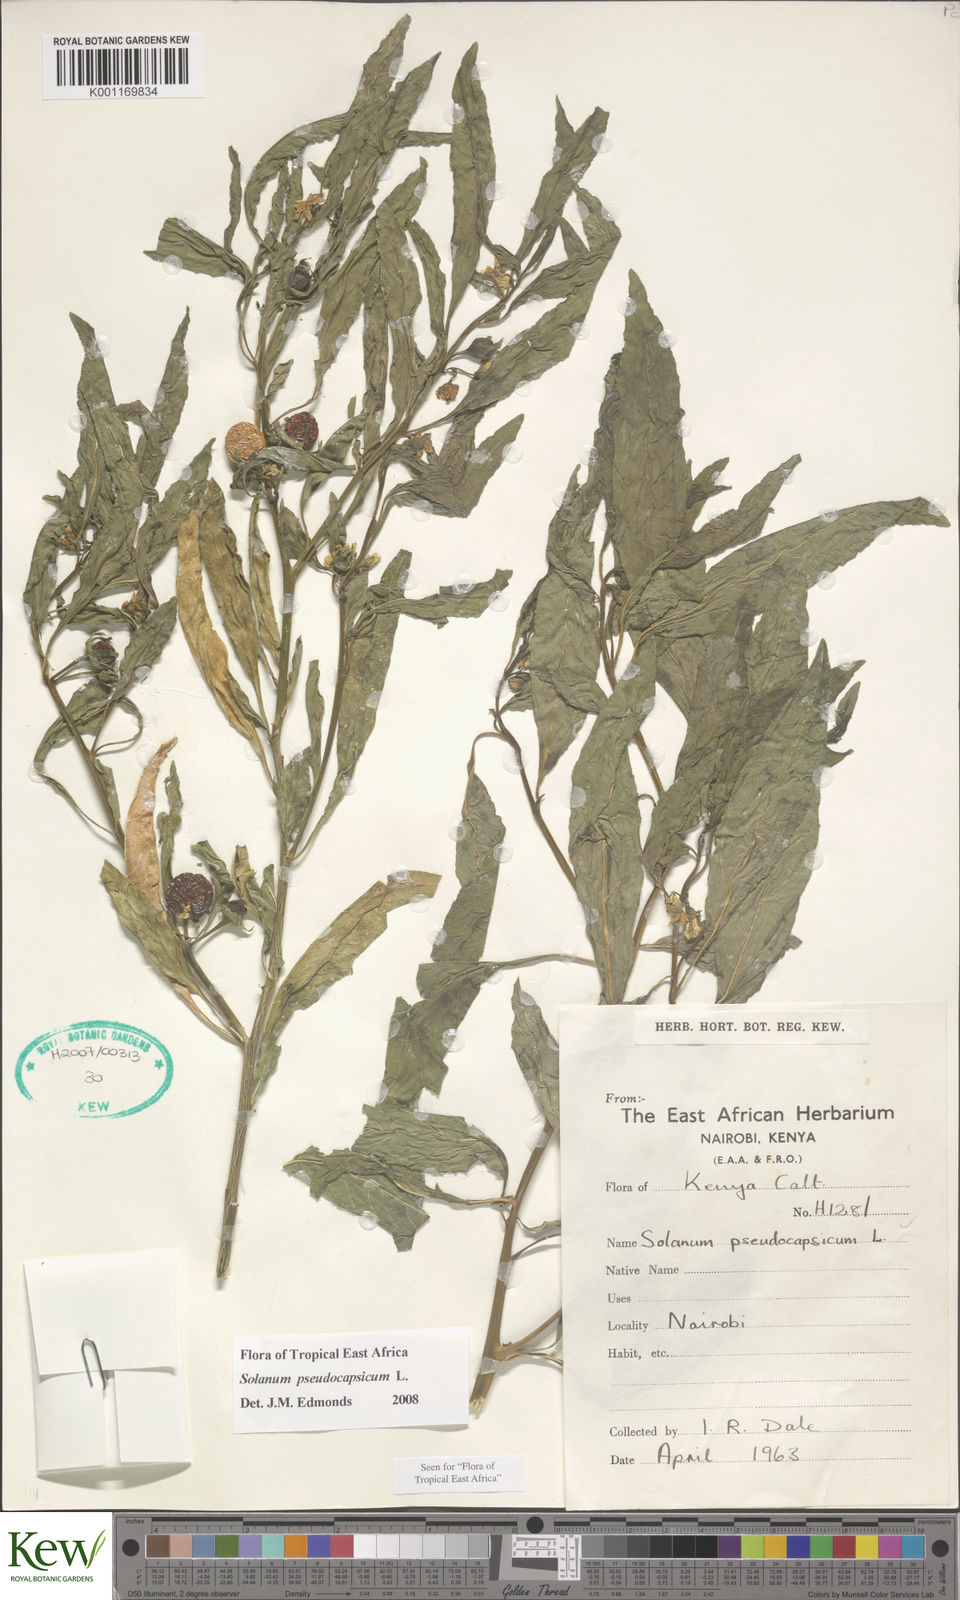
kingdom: Plantae
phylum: Tracheophyta
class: Magnoliopsida
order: Solanales
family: Solanaceae
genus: Solanum
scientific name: Solanum
